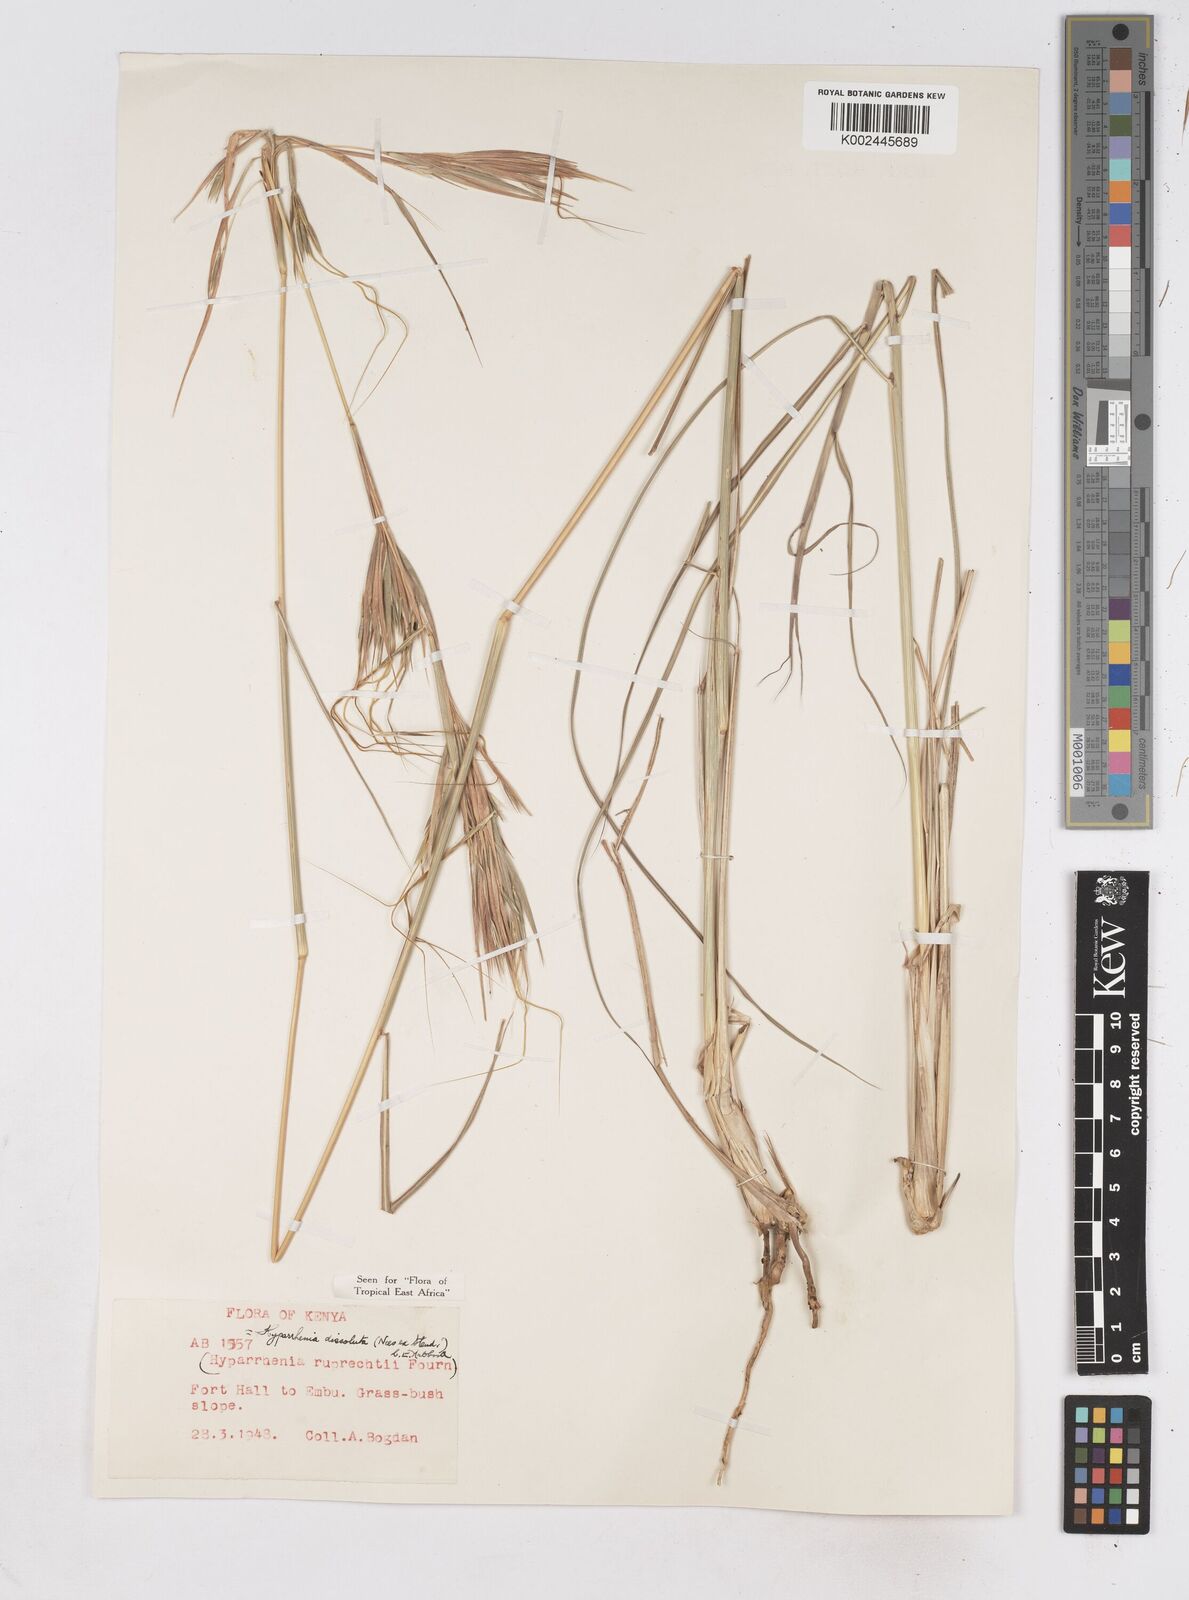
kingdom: Plantae
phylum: Tracheophyta
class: Liliopsida
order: Poales
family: Poaceae
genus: Hyperthelia
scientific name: Hyperthelia dissoluta
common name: Yellow thatching grass
